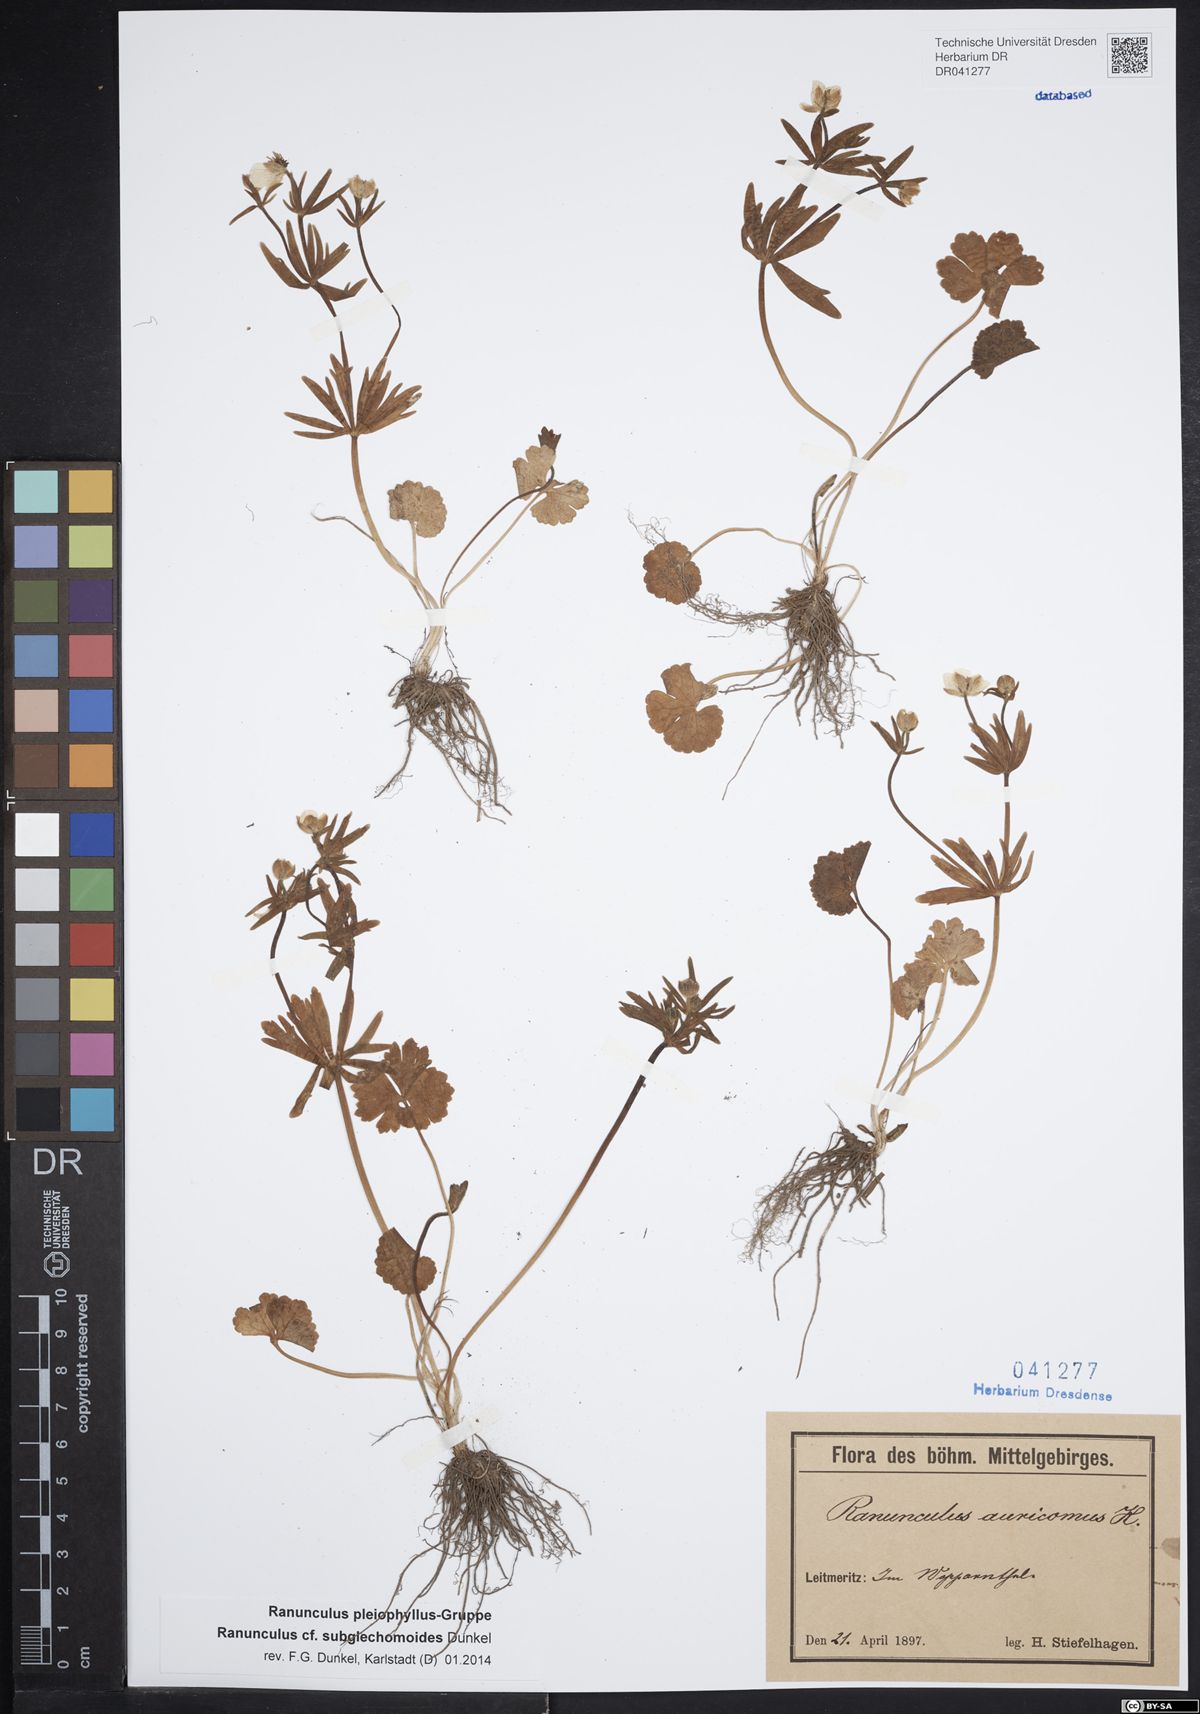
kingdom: Plantae
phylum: Tracheophyta
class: Magnoliopsida
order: Ranunculales
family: Ranunculaceae
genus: Ranunculus
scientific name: Ranunculus subglechomoides
